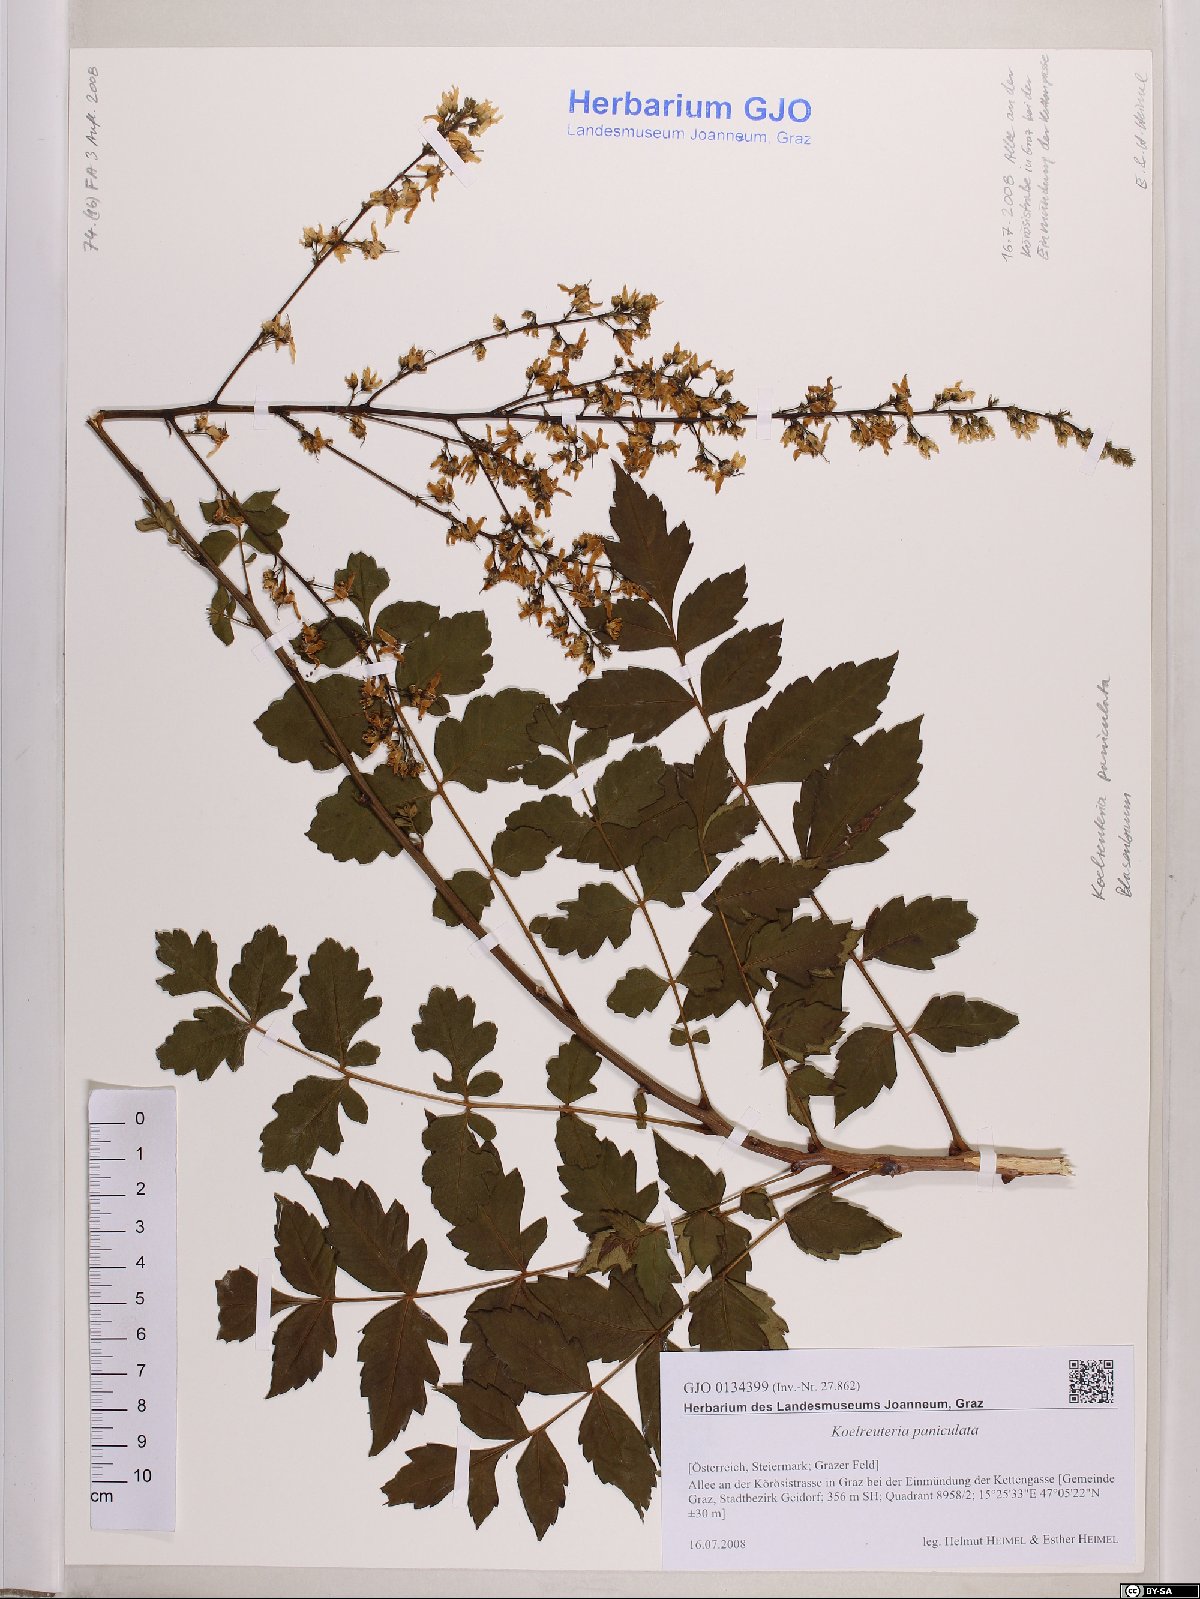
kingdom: Plantae
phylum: Tracheophyta
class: Magnoliopsida
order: Sapindales
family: Sapindaceae
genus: Koelreuteria
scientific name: Koelreuteria paniculata
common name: Pride-of-india
